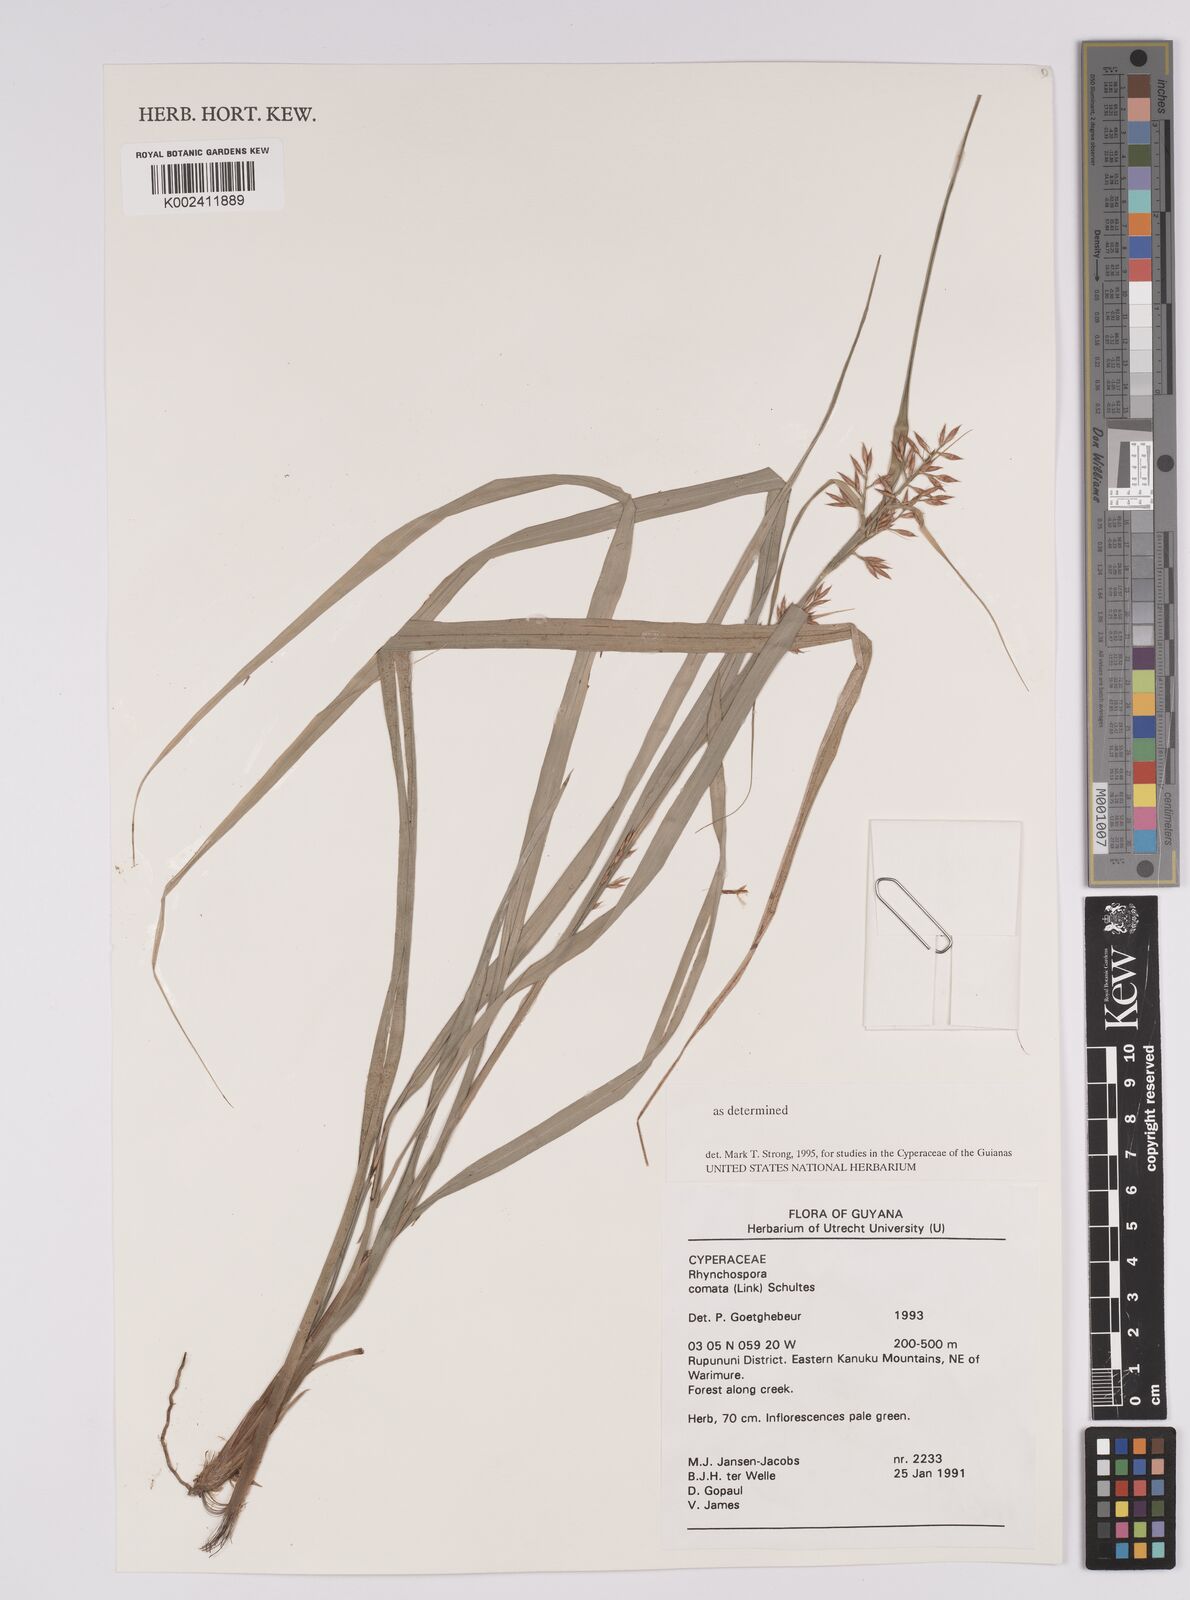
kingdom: Plantae
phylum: Tracheophyta
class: Liliopsida
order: Poales
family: Cyperaceae
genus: Rhynchospora
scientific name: Rhynchospora comata
